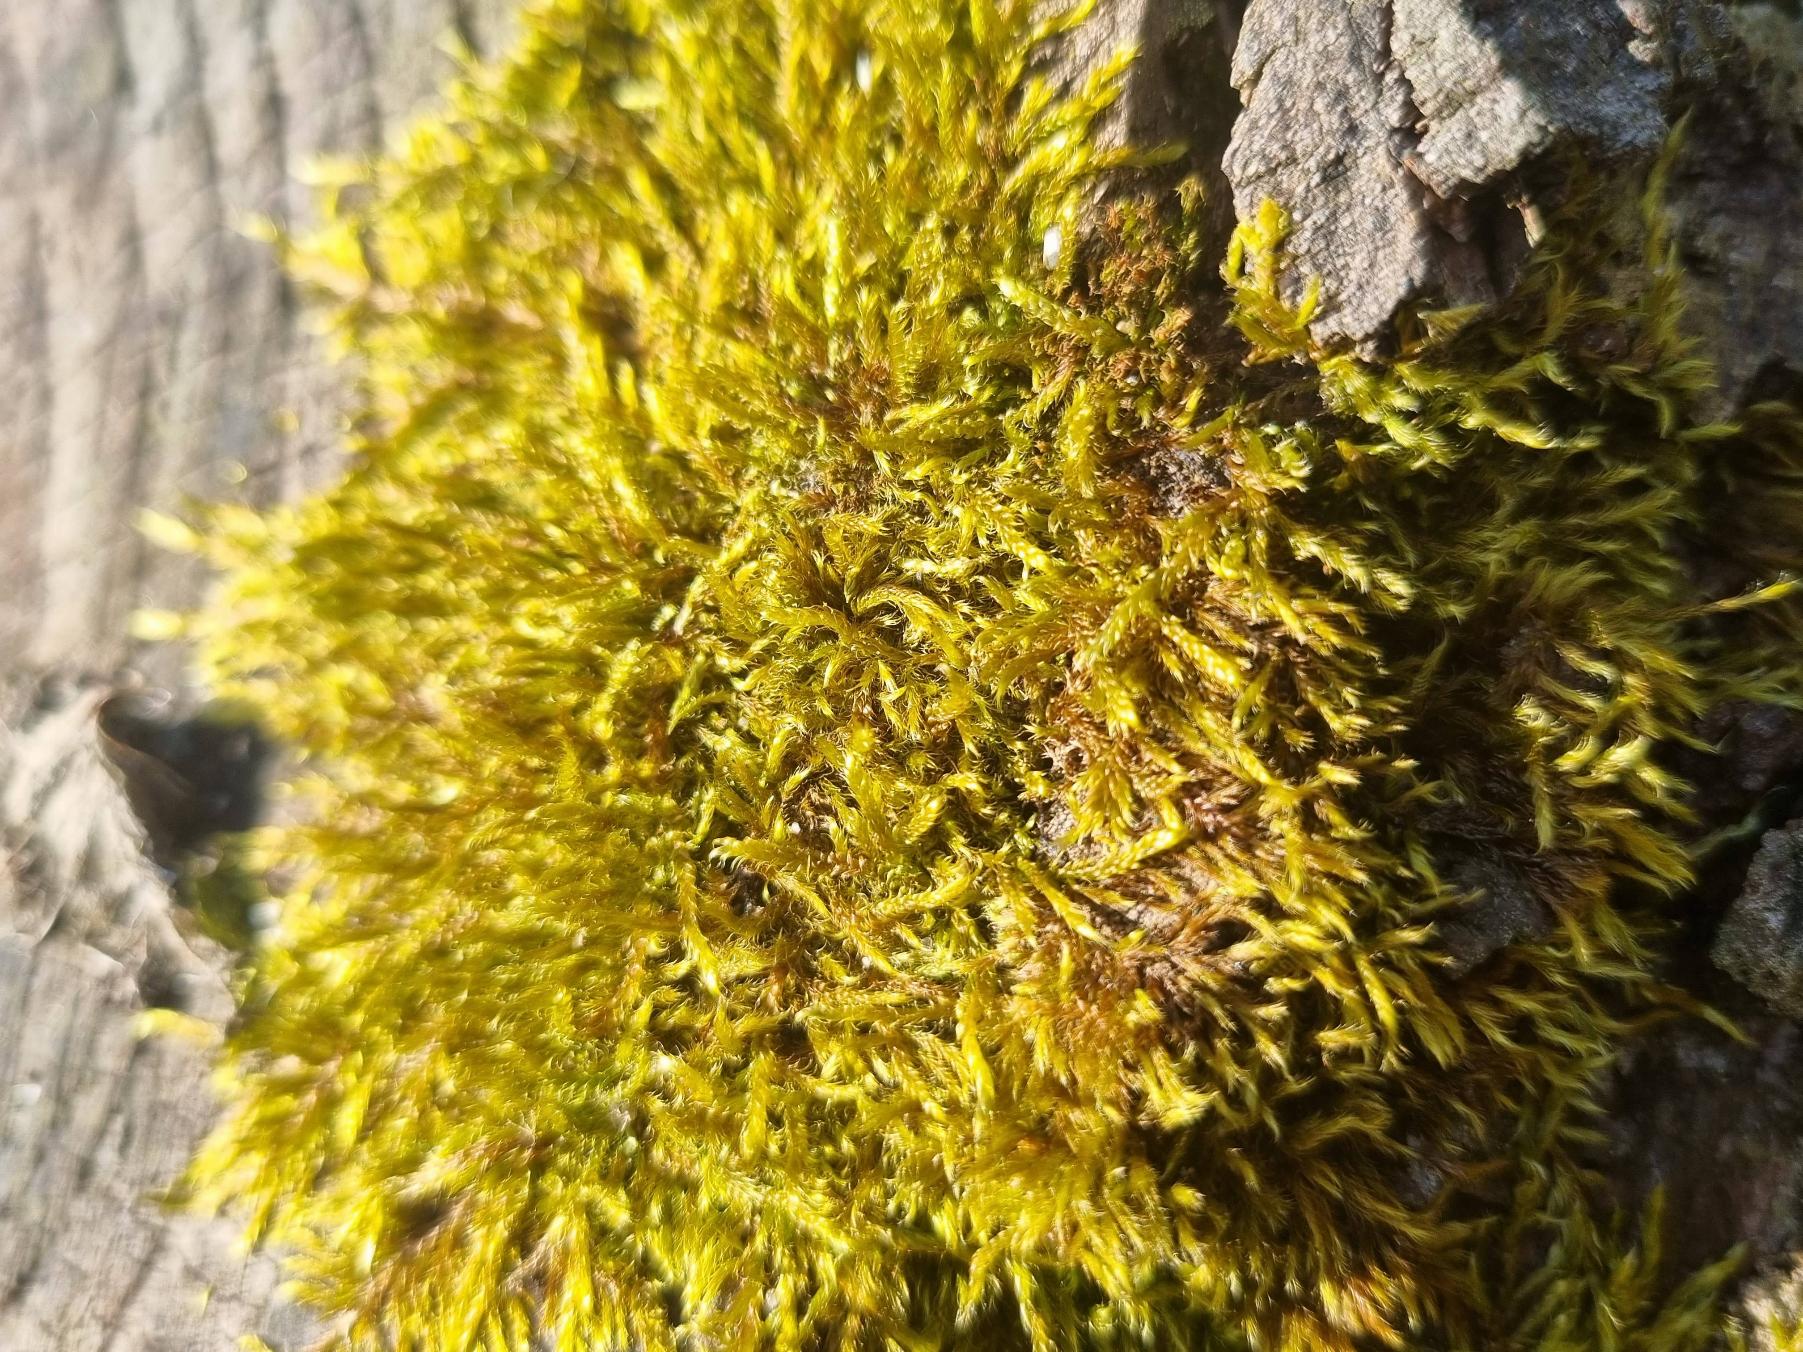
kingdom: Plantae
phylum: Bryophyta
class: Bryopsida
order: Hypnales
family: Hypnaceae
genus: Hypnum
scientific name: Hypnum cupressiforme
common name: Almindelig cypresmos
